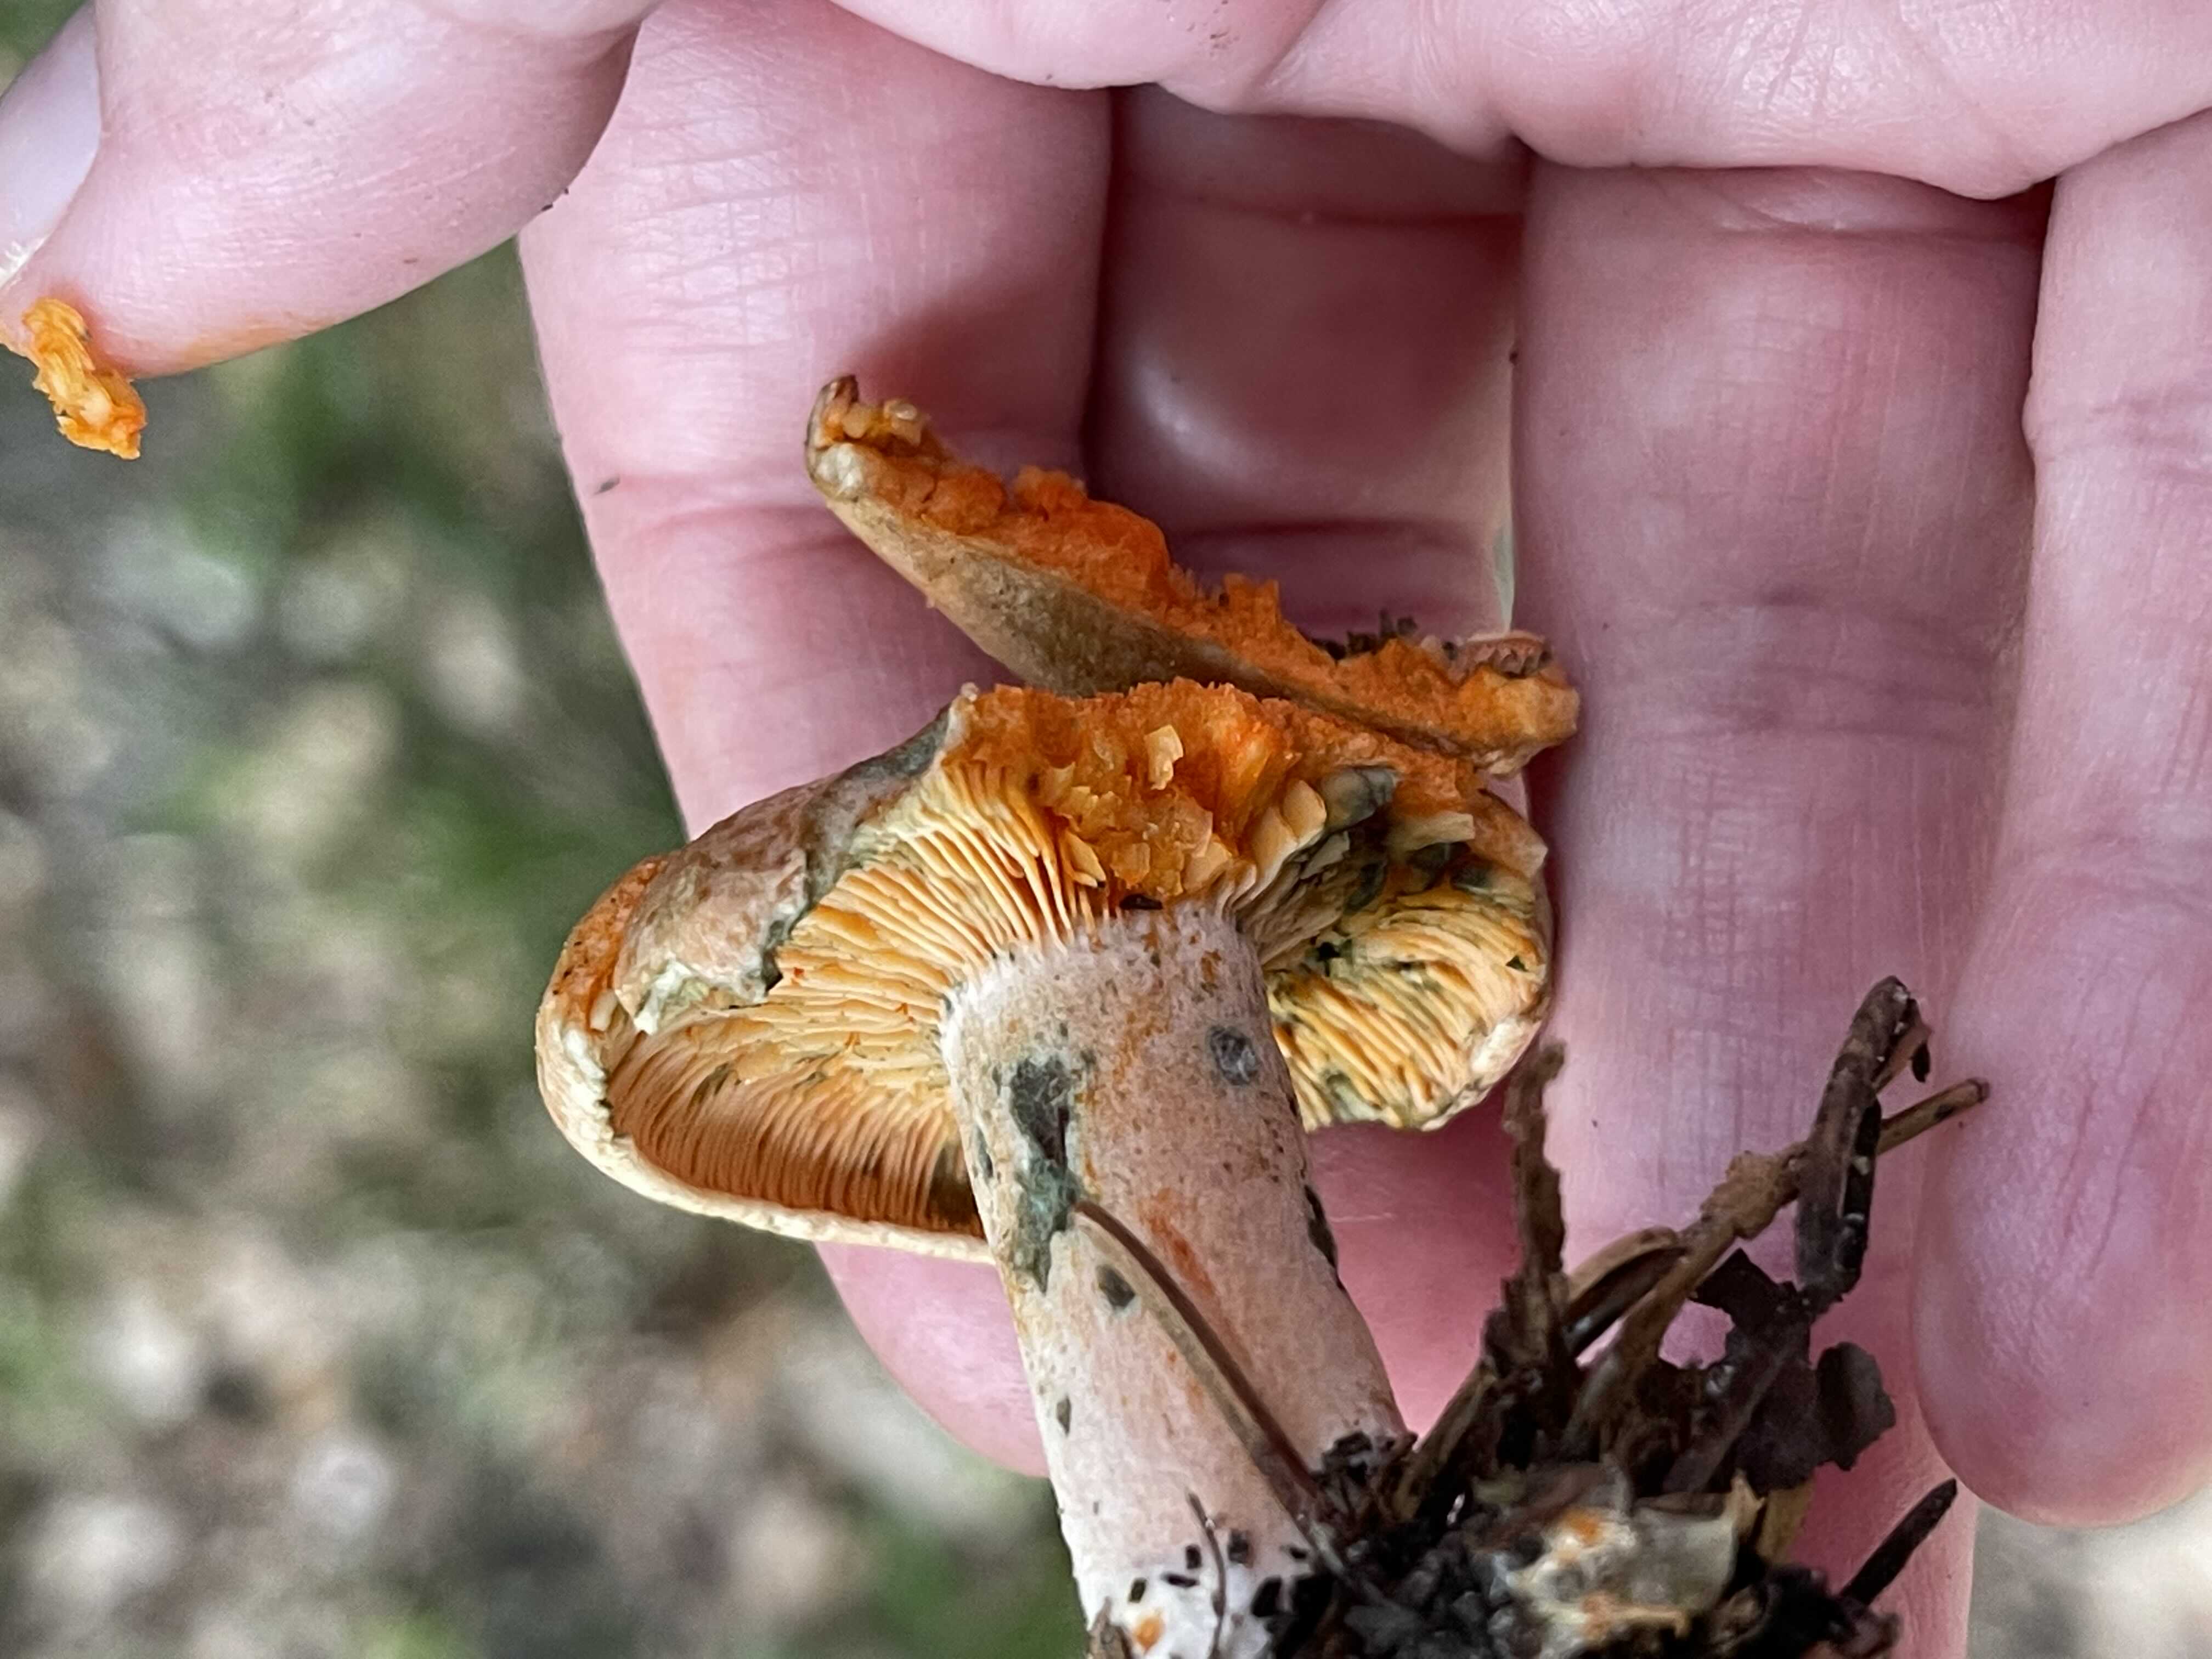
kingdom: Fungi
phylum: Basidiomycota
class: Agaricomycetes
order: Russulales
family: Russulaceae
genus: Lactarius
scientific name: Lactarius deterrimus
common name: gran-mælkehat
